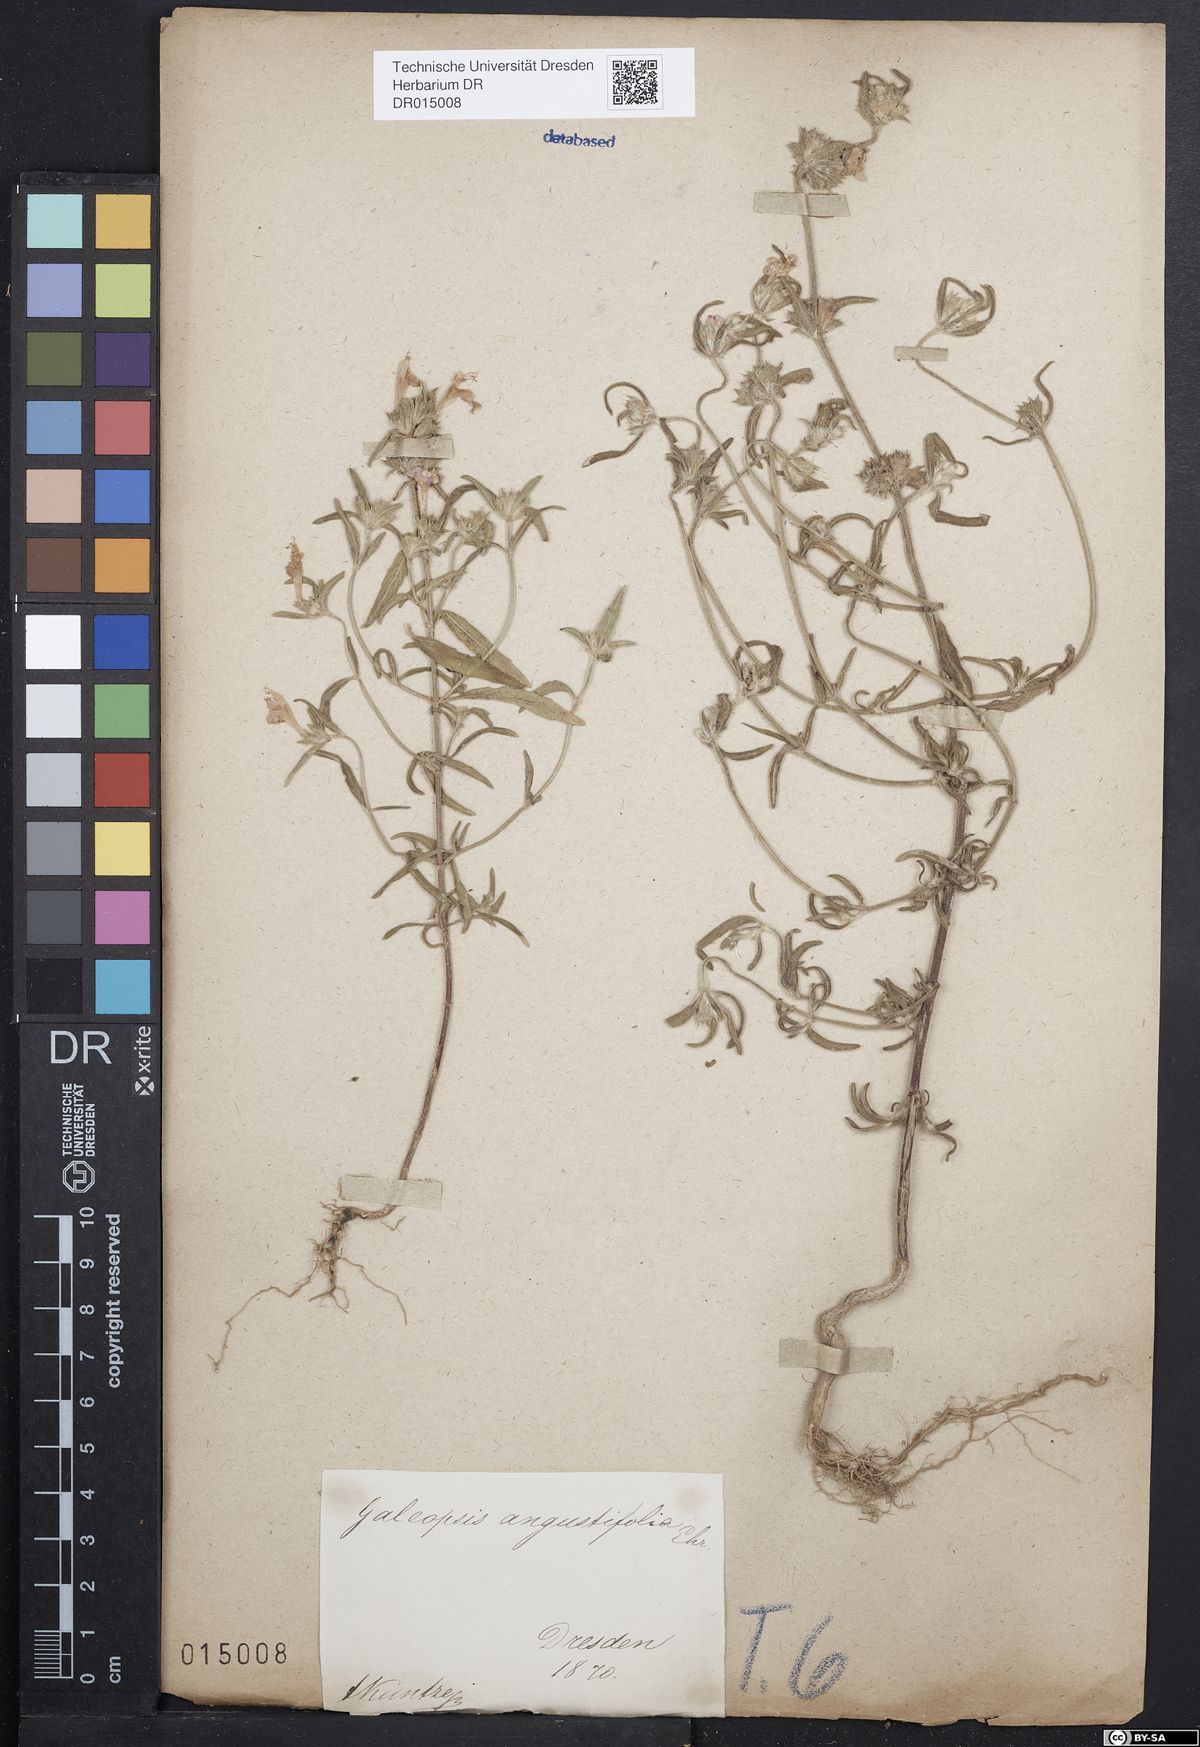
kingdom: Plantae
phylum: Tracheophyta
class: Magnoliopsida
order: Lamiales
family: Lamiaceae
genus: Galeopsis
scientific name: Galeopsis angustifolia
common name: Red hemp-nettle
